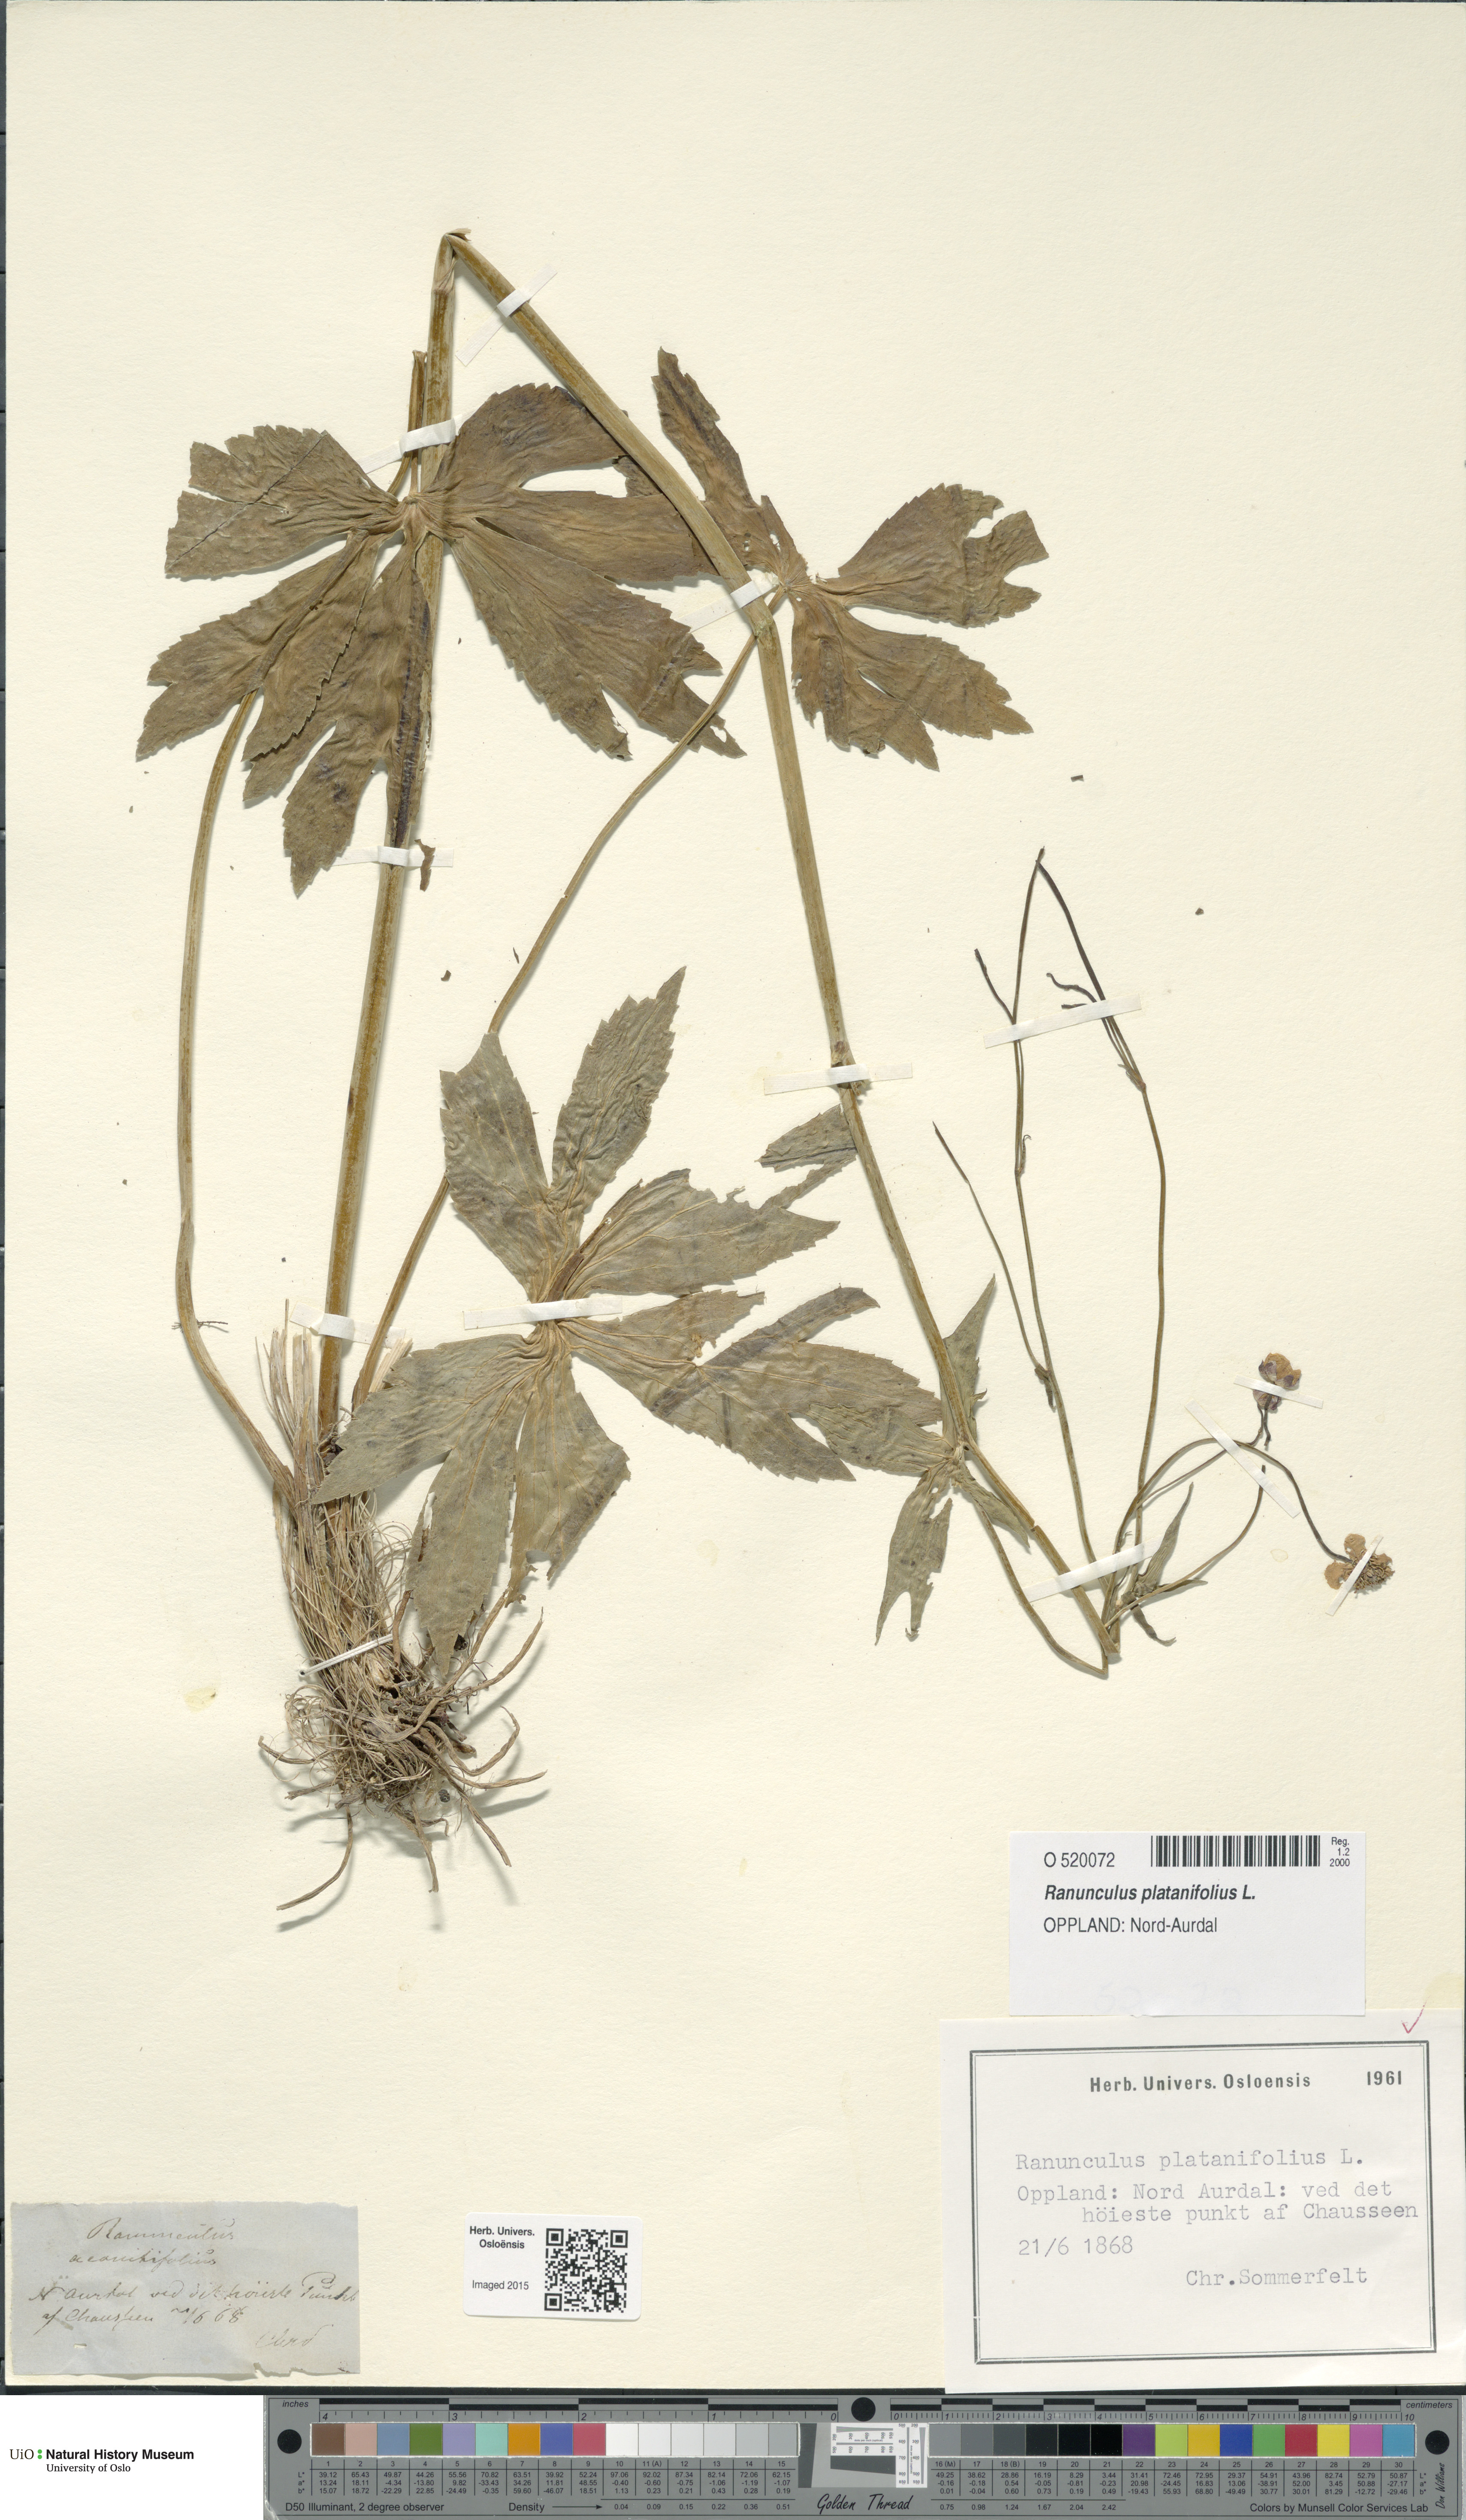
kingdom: Plantae
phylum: Tracheophyta
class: Magnoliopsida
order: Ranunculales
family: Ranunculaceae
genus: Ranunculus
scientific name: Ranunculus platanifolius
